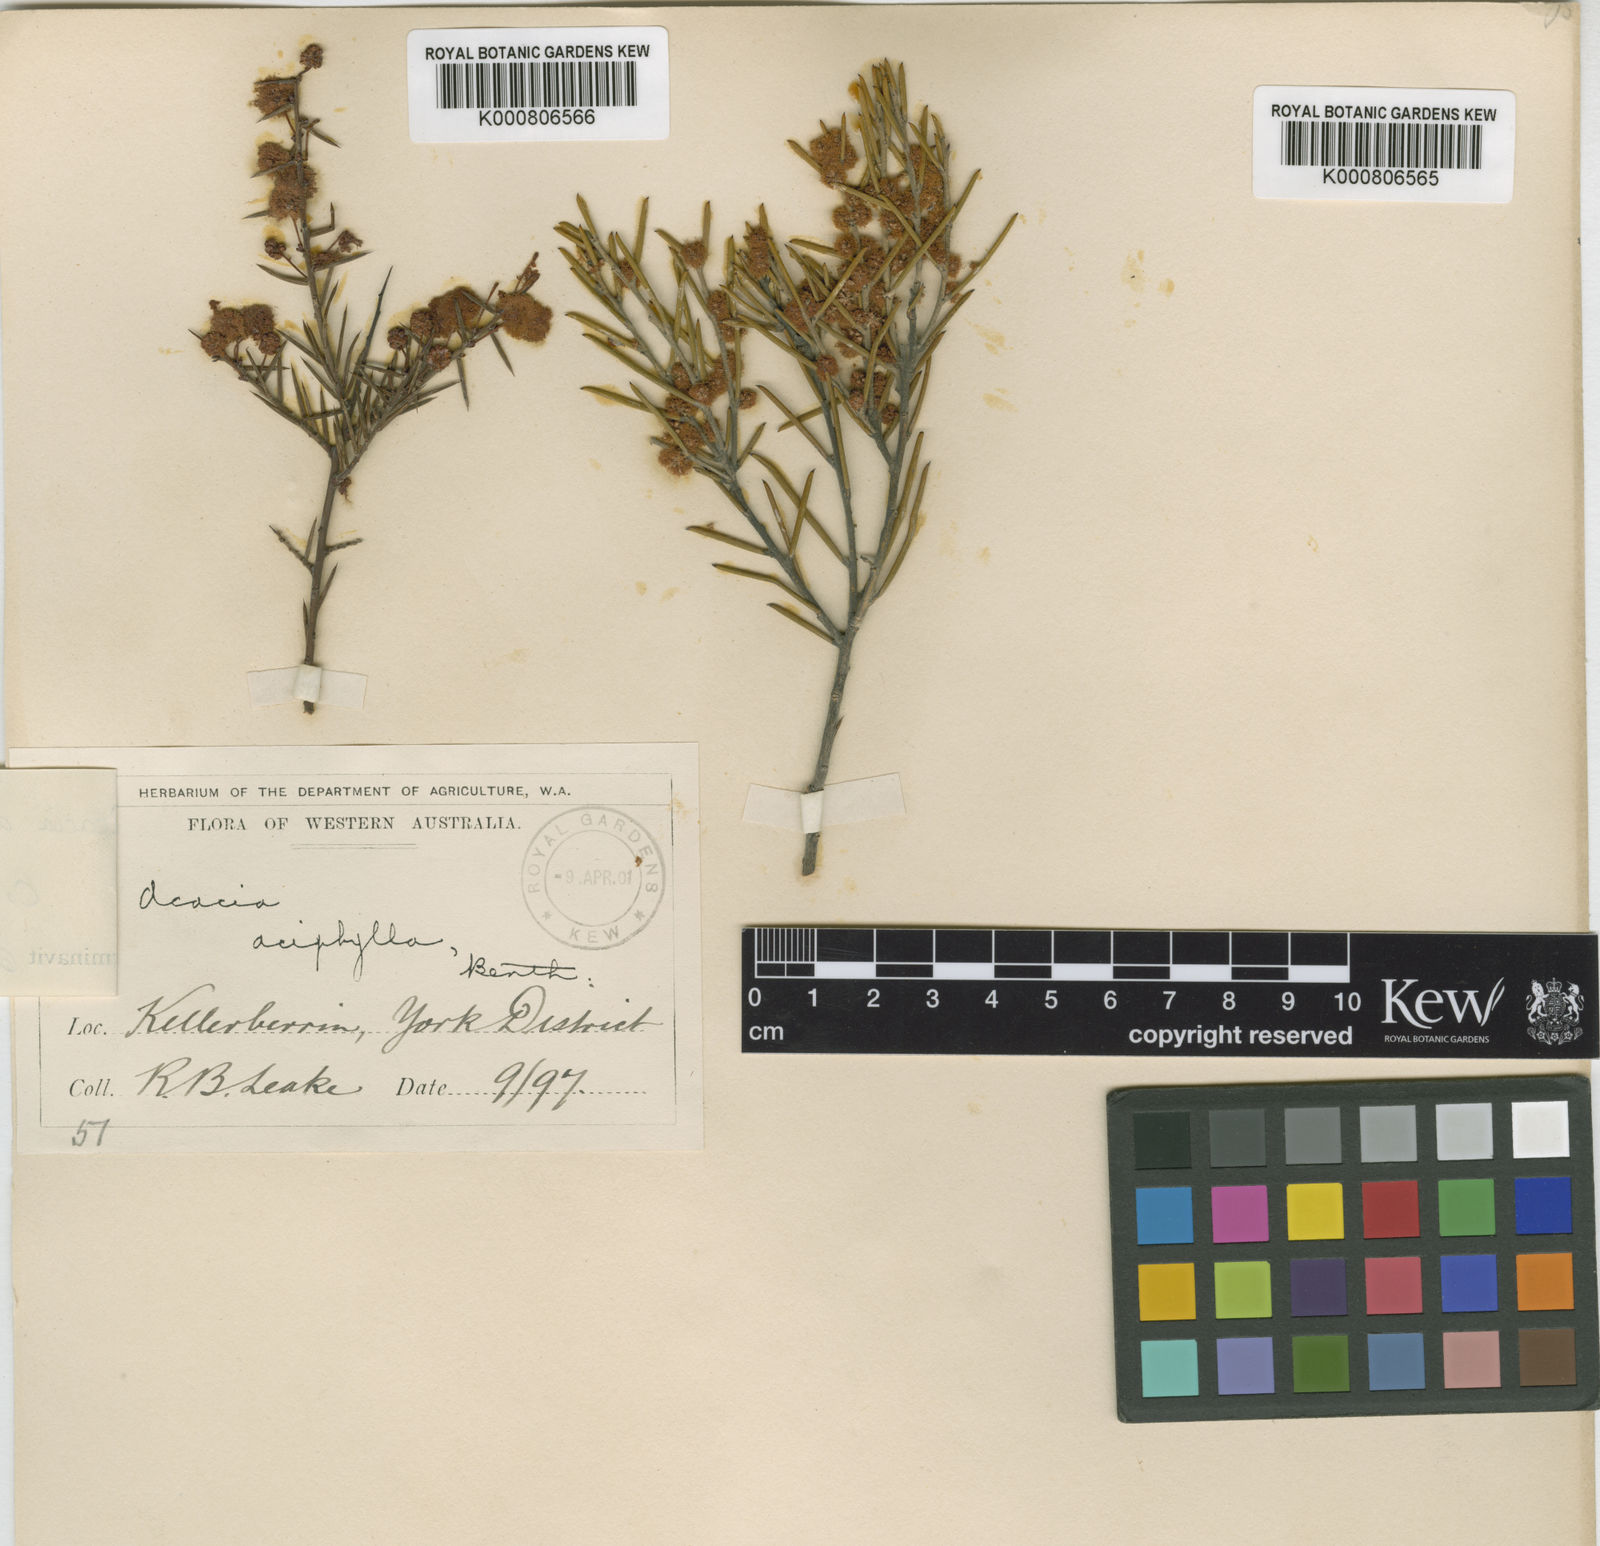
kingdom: Plantae
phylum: Tracheophyta
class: Magnoliopsida
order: Fabales
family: Fabaceae
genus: Acacia
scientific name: Acacia densiflora
